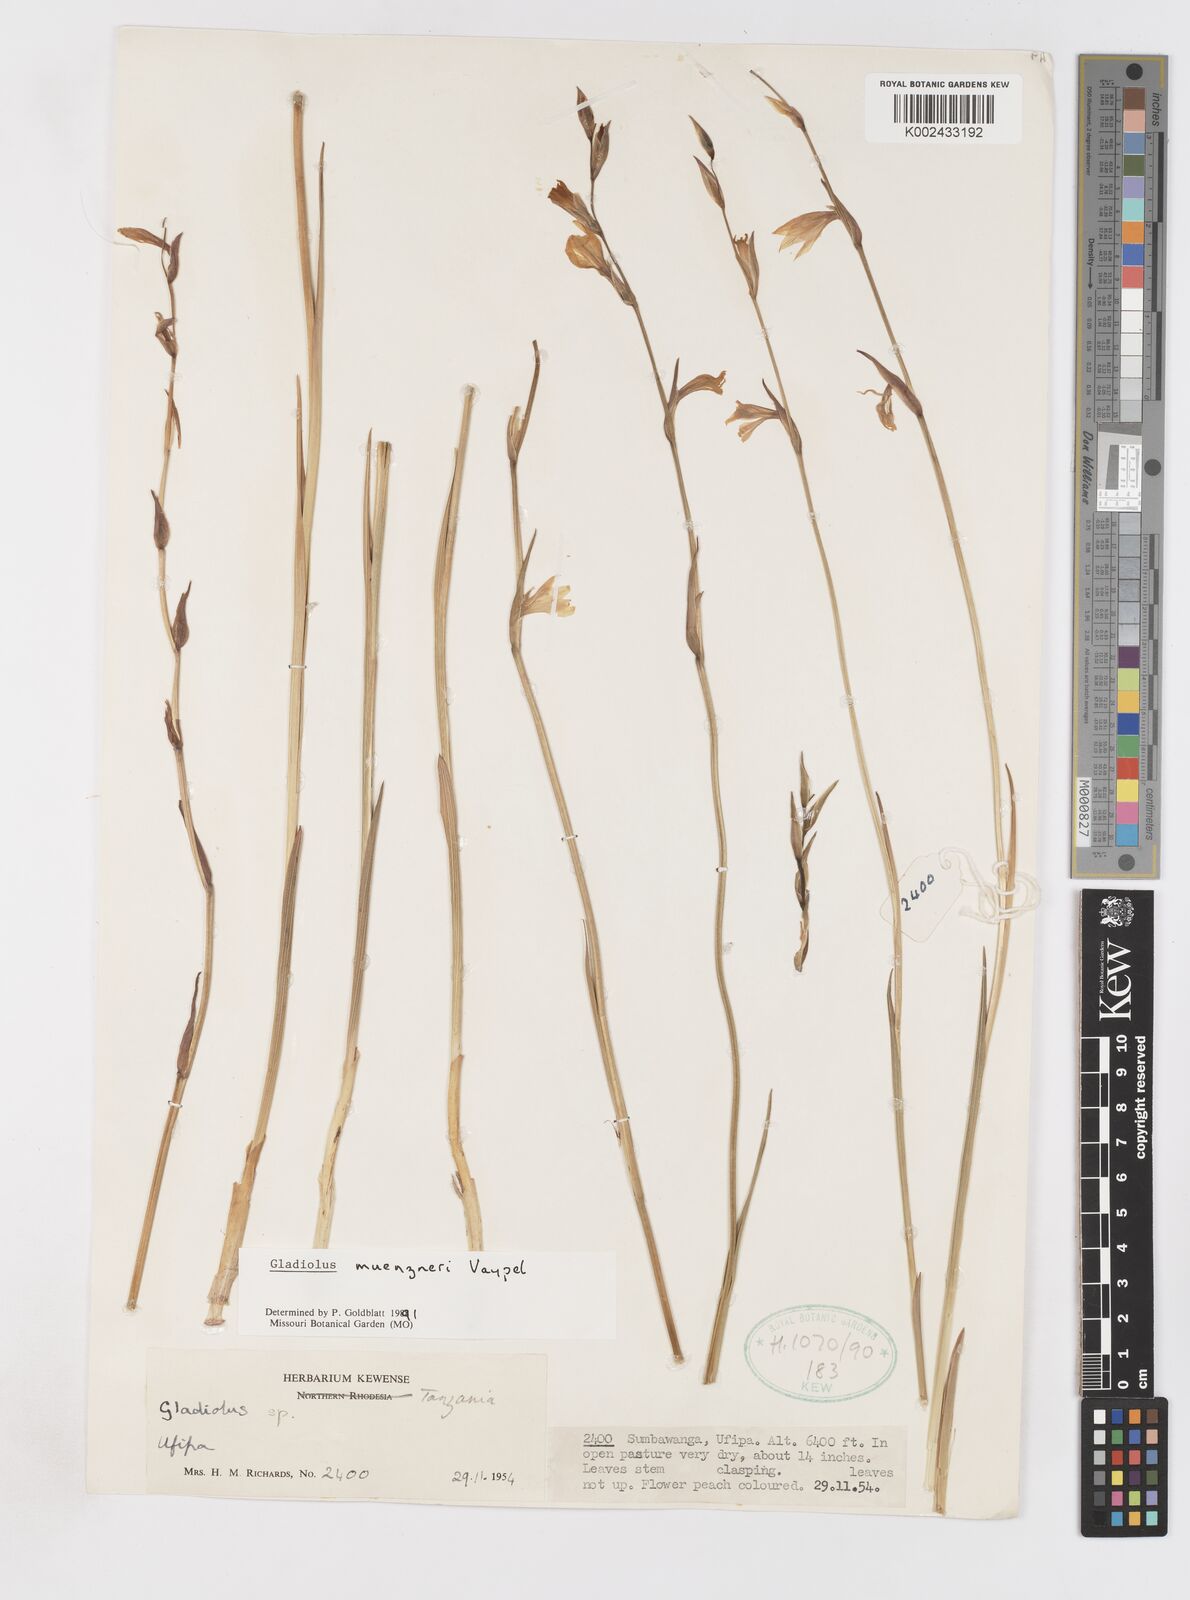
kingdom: Plantae
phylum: Tracheophyta
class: Liliopsida
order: Asparagales
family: Iridaceae
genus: Gladiolus
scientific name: Gladiolus muenzneri
